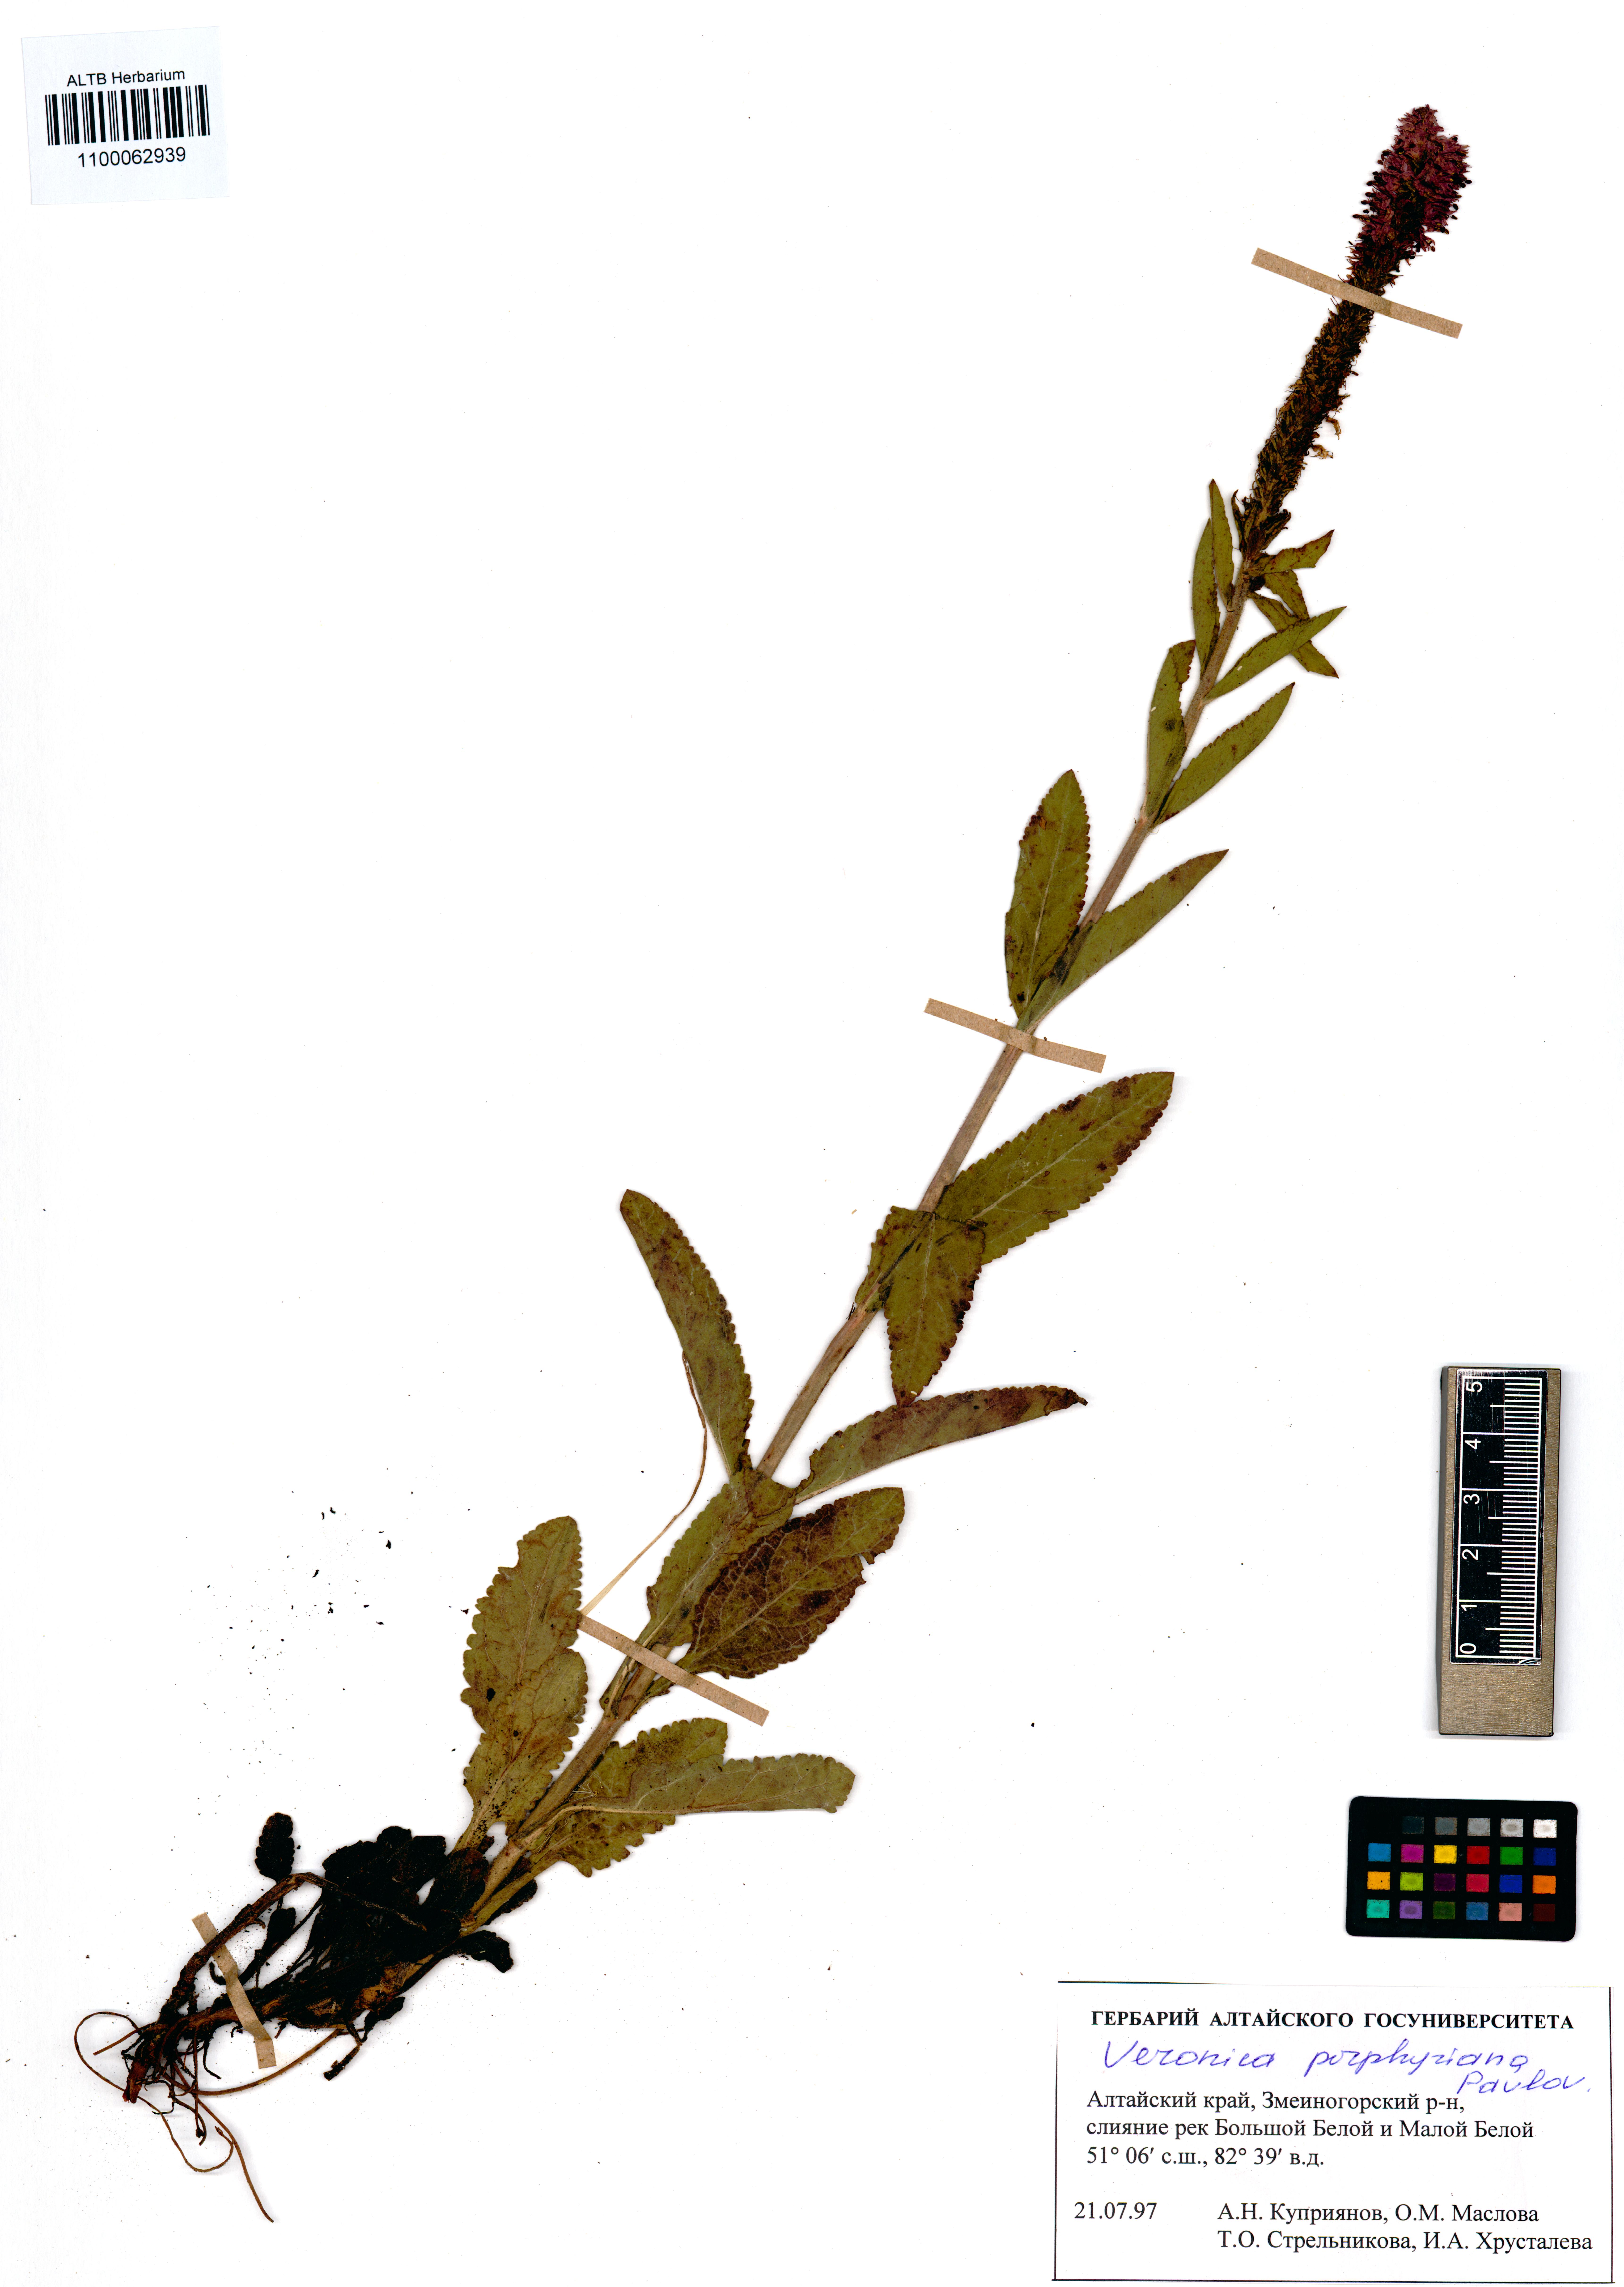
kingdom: Plantae
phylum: Tracheophyta
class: Magnoliopsida
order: Lamiales
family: Plantaginaceae
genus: Veronica
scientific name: Veronica porphyriana
